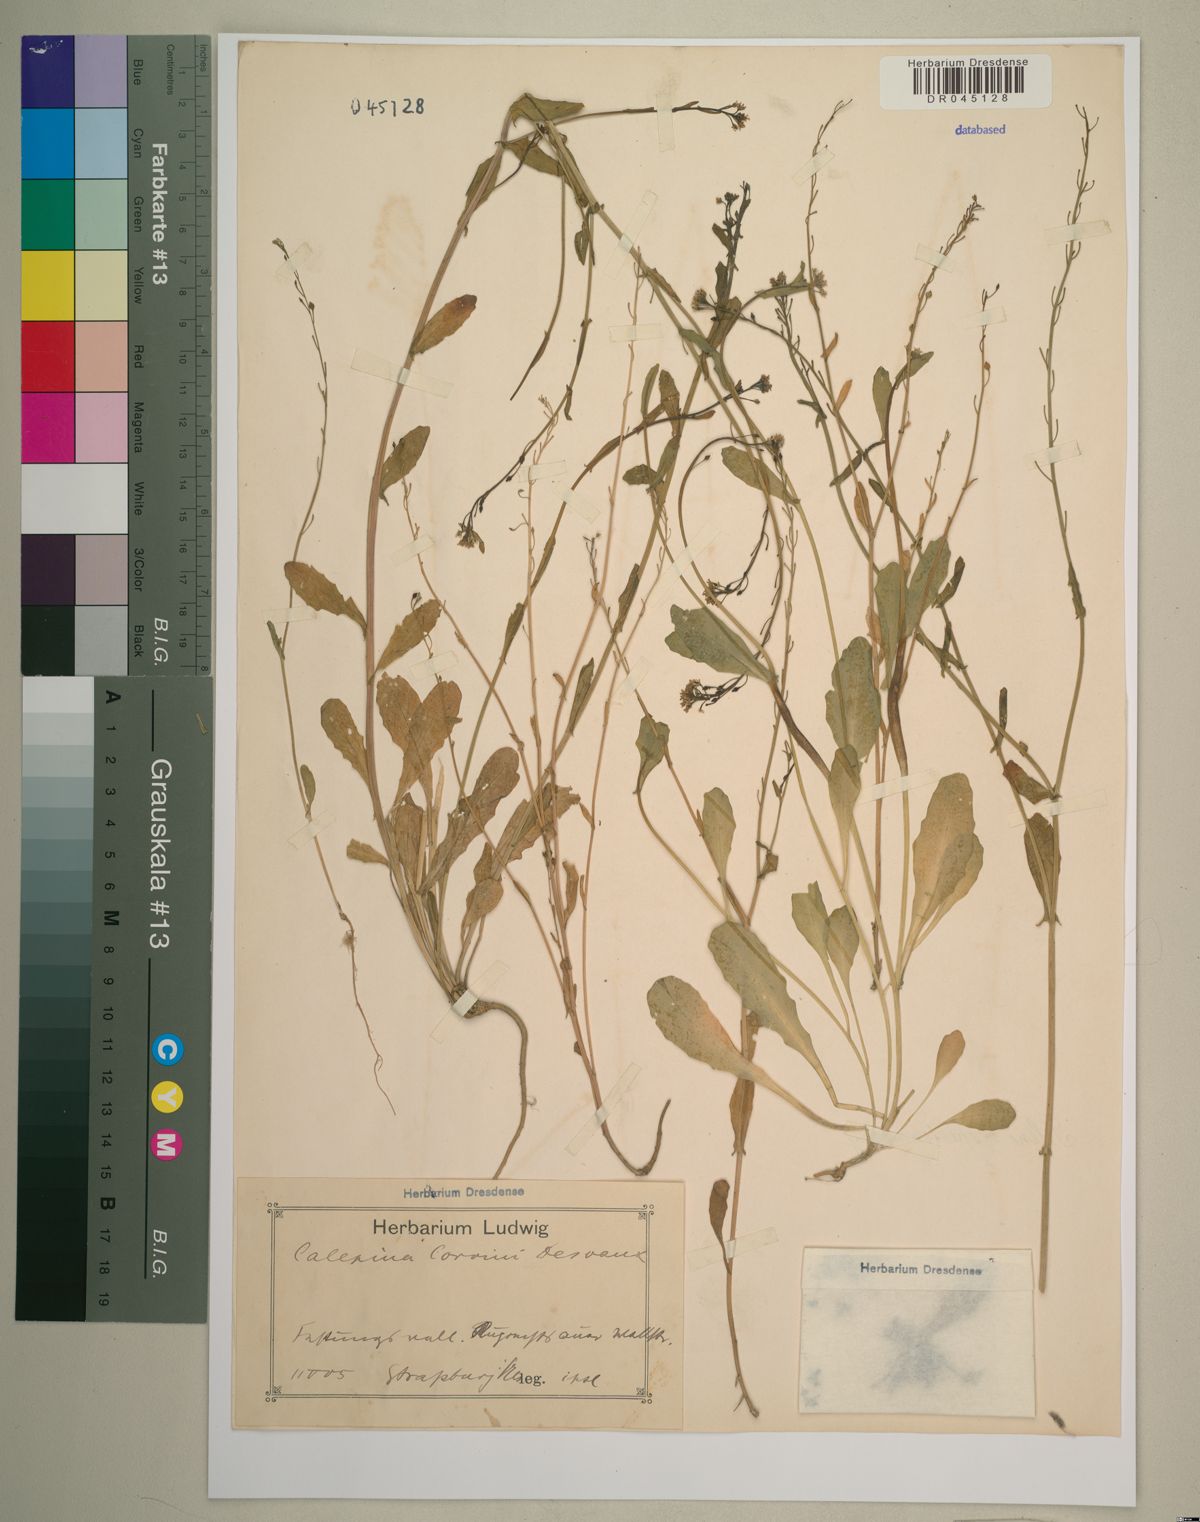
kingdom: Plantae
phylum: Tracheophyta
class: Magnoliopsida
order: Brassicales
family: Brassicaceae
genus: Calepina
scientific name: Calepina irregularis
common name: White ballmustard
